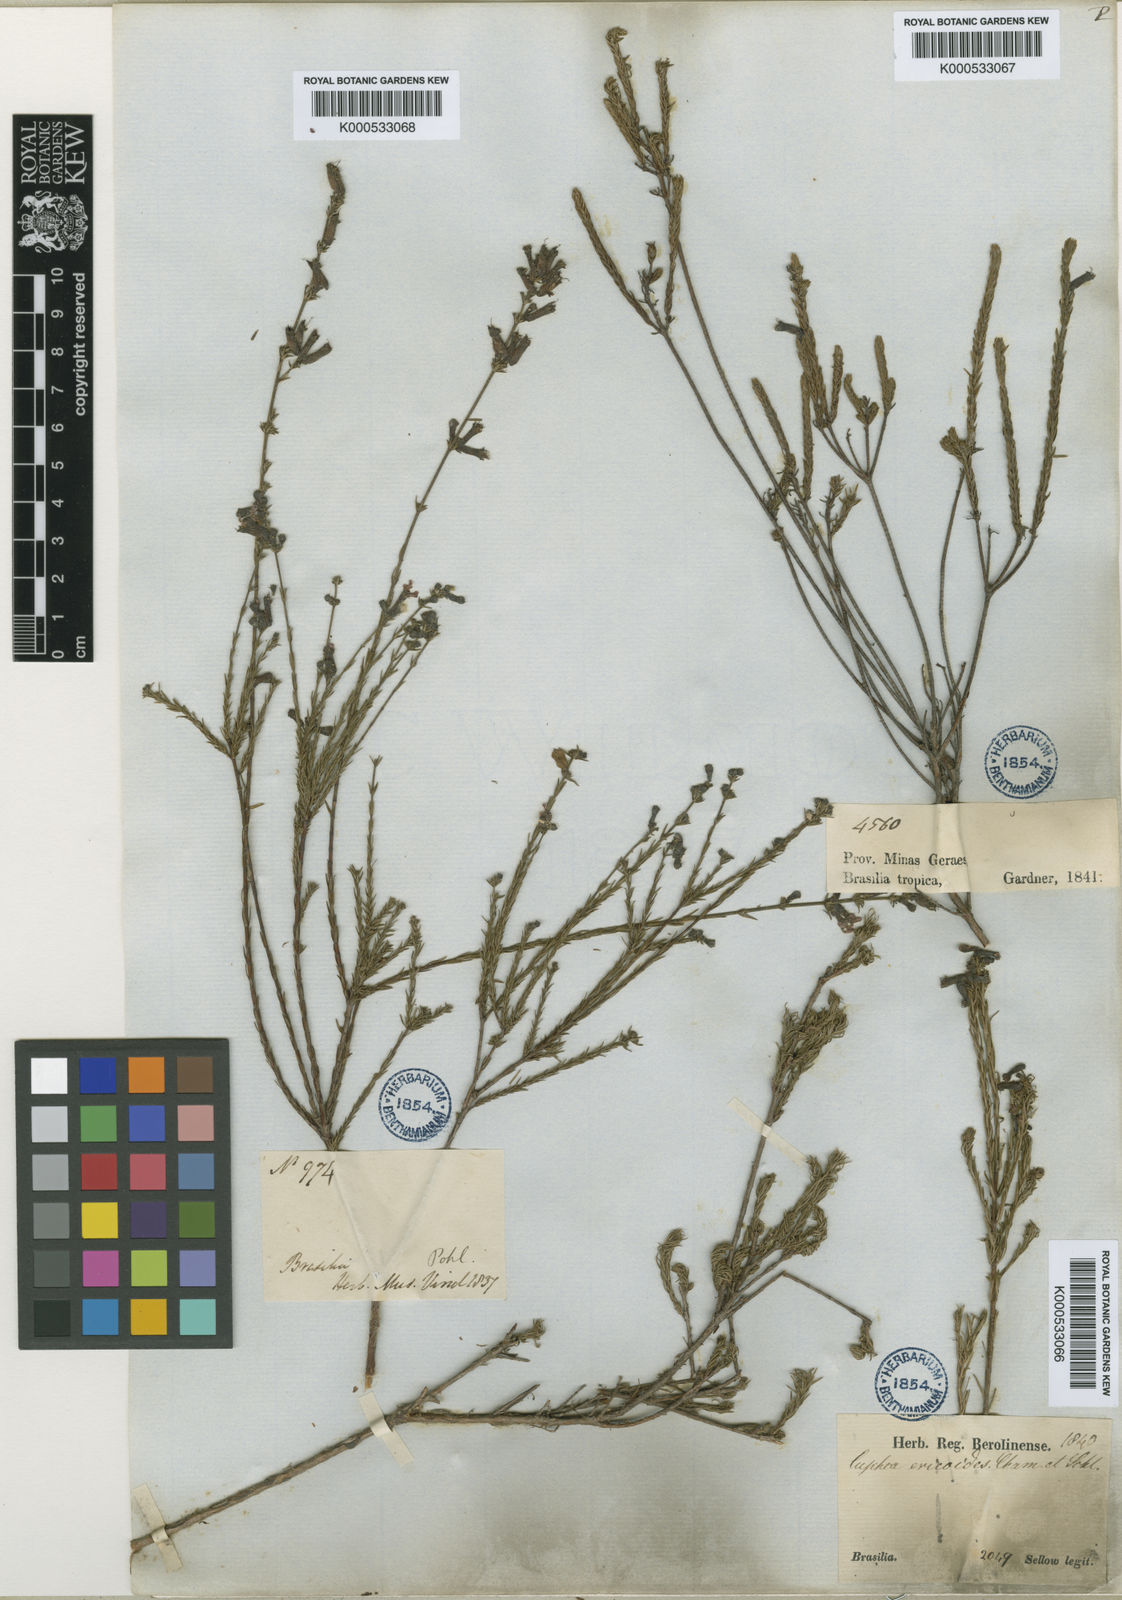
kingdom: Plantae
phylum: Tracheophyta
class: Magnoliopsida
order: Myrtales
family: Lythraceae
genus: Cuphea
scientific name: Cuphea ericoides
